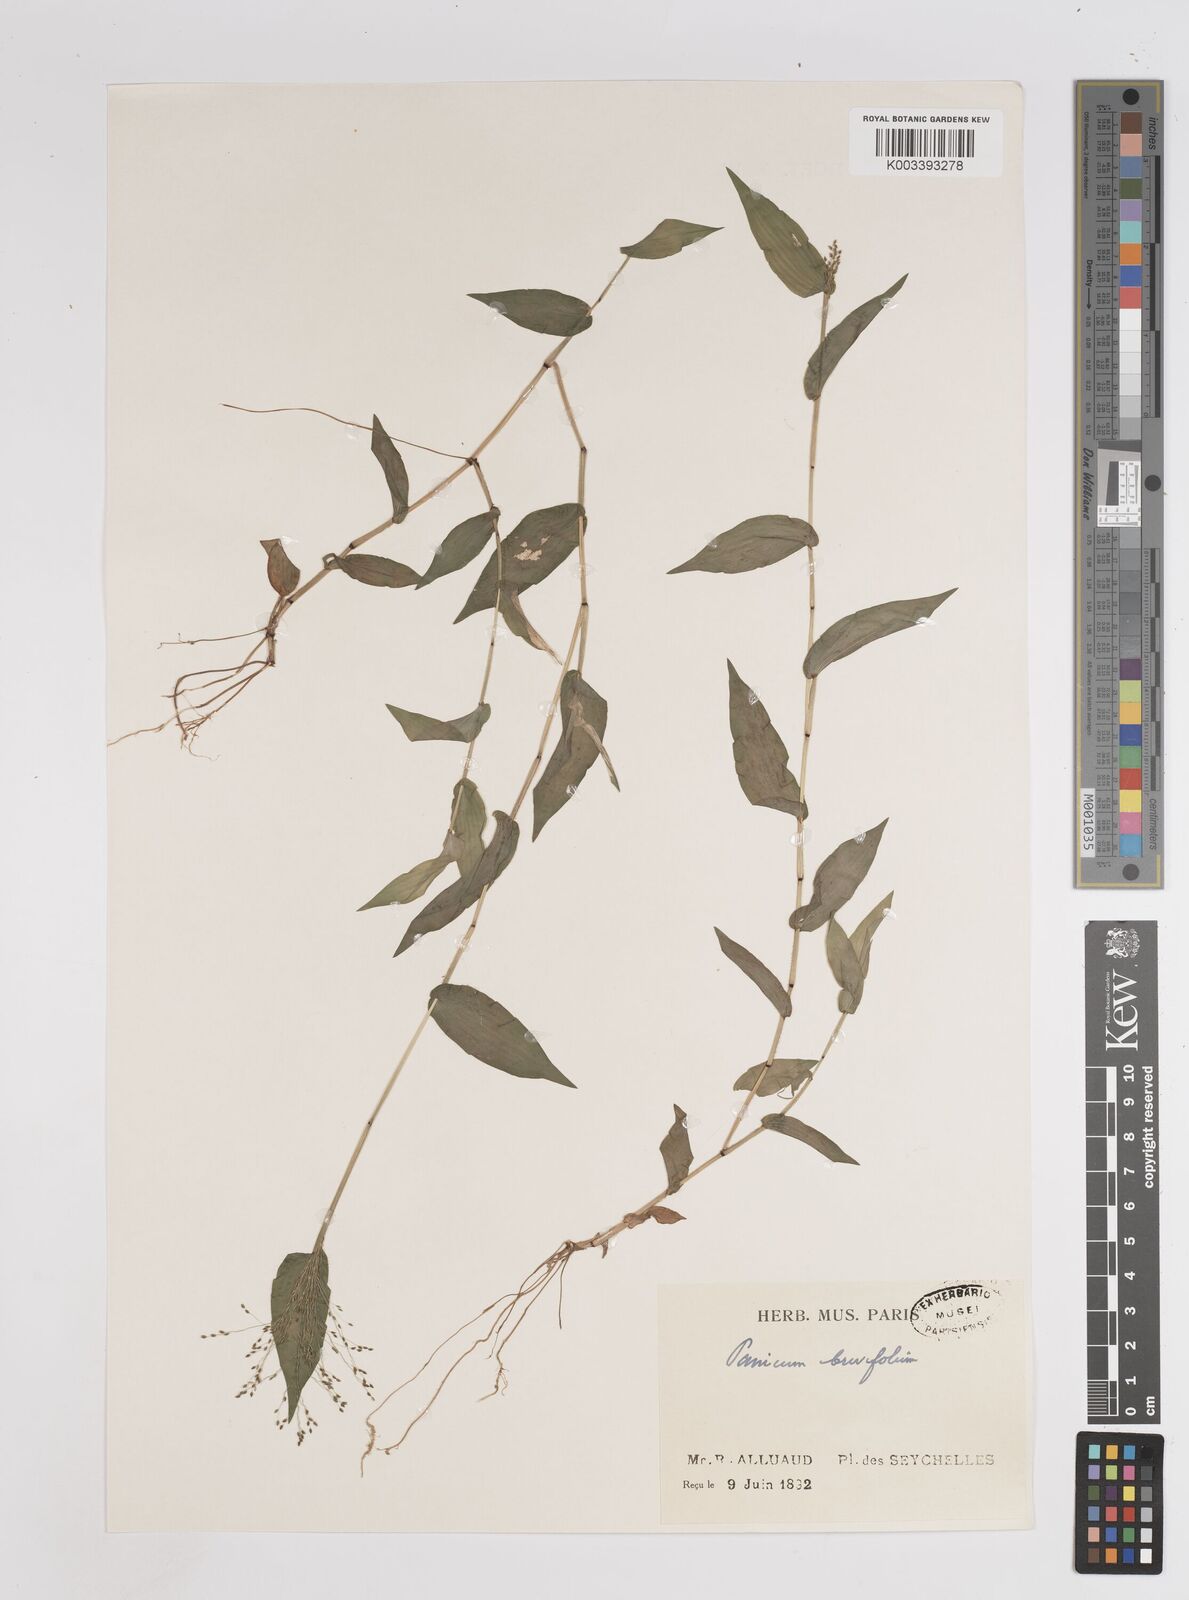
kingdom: Plantae
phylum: Tracheophyta
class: Liliopsida
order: Poales
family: Poaceae
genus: Panicum
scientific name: Panicum brevifolium
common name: Shortleaf panic grass
